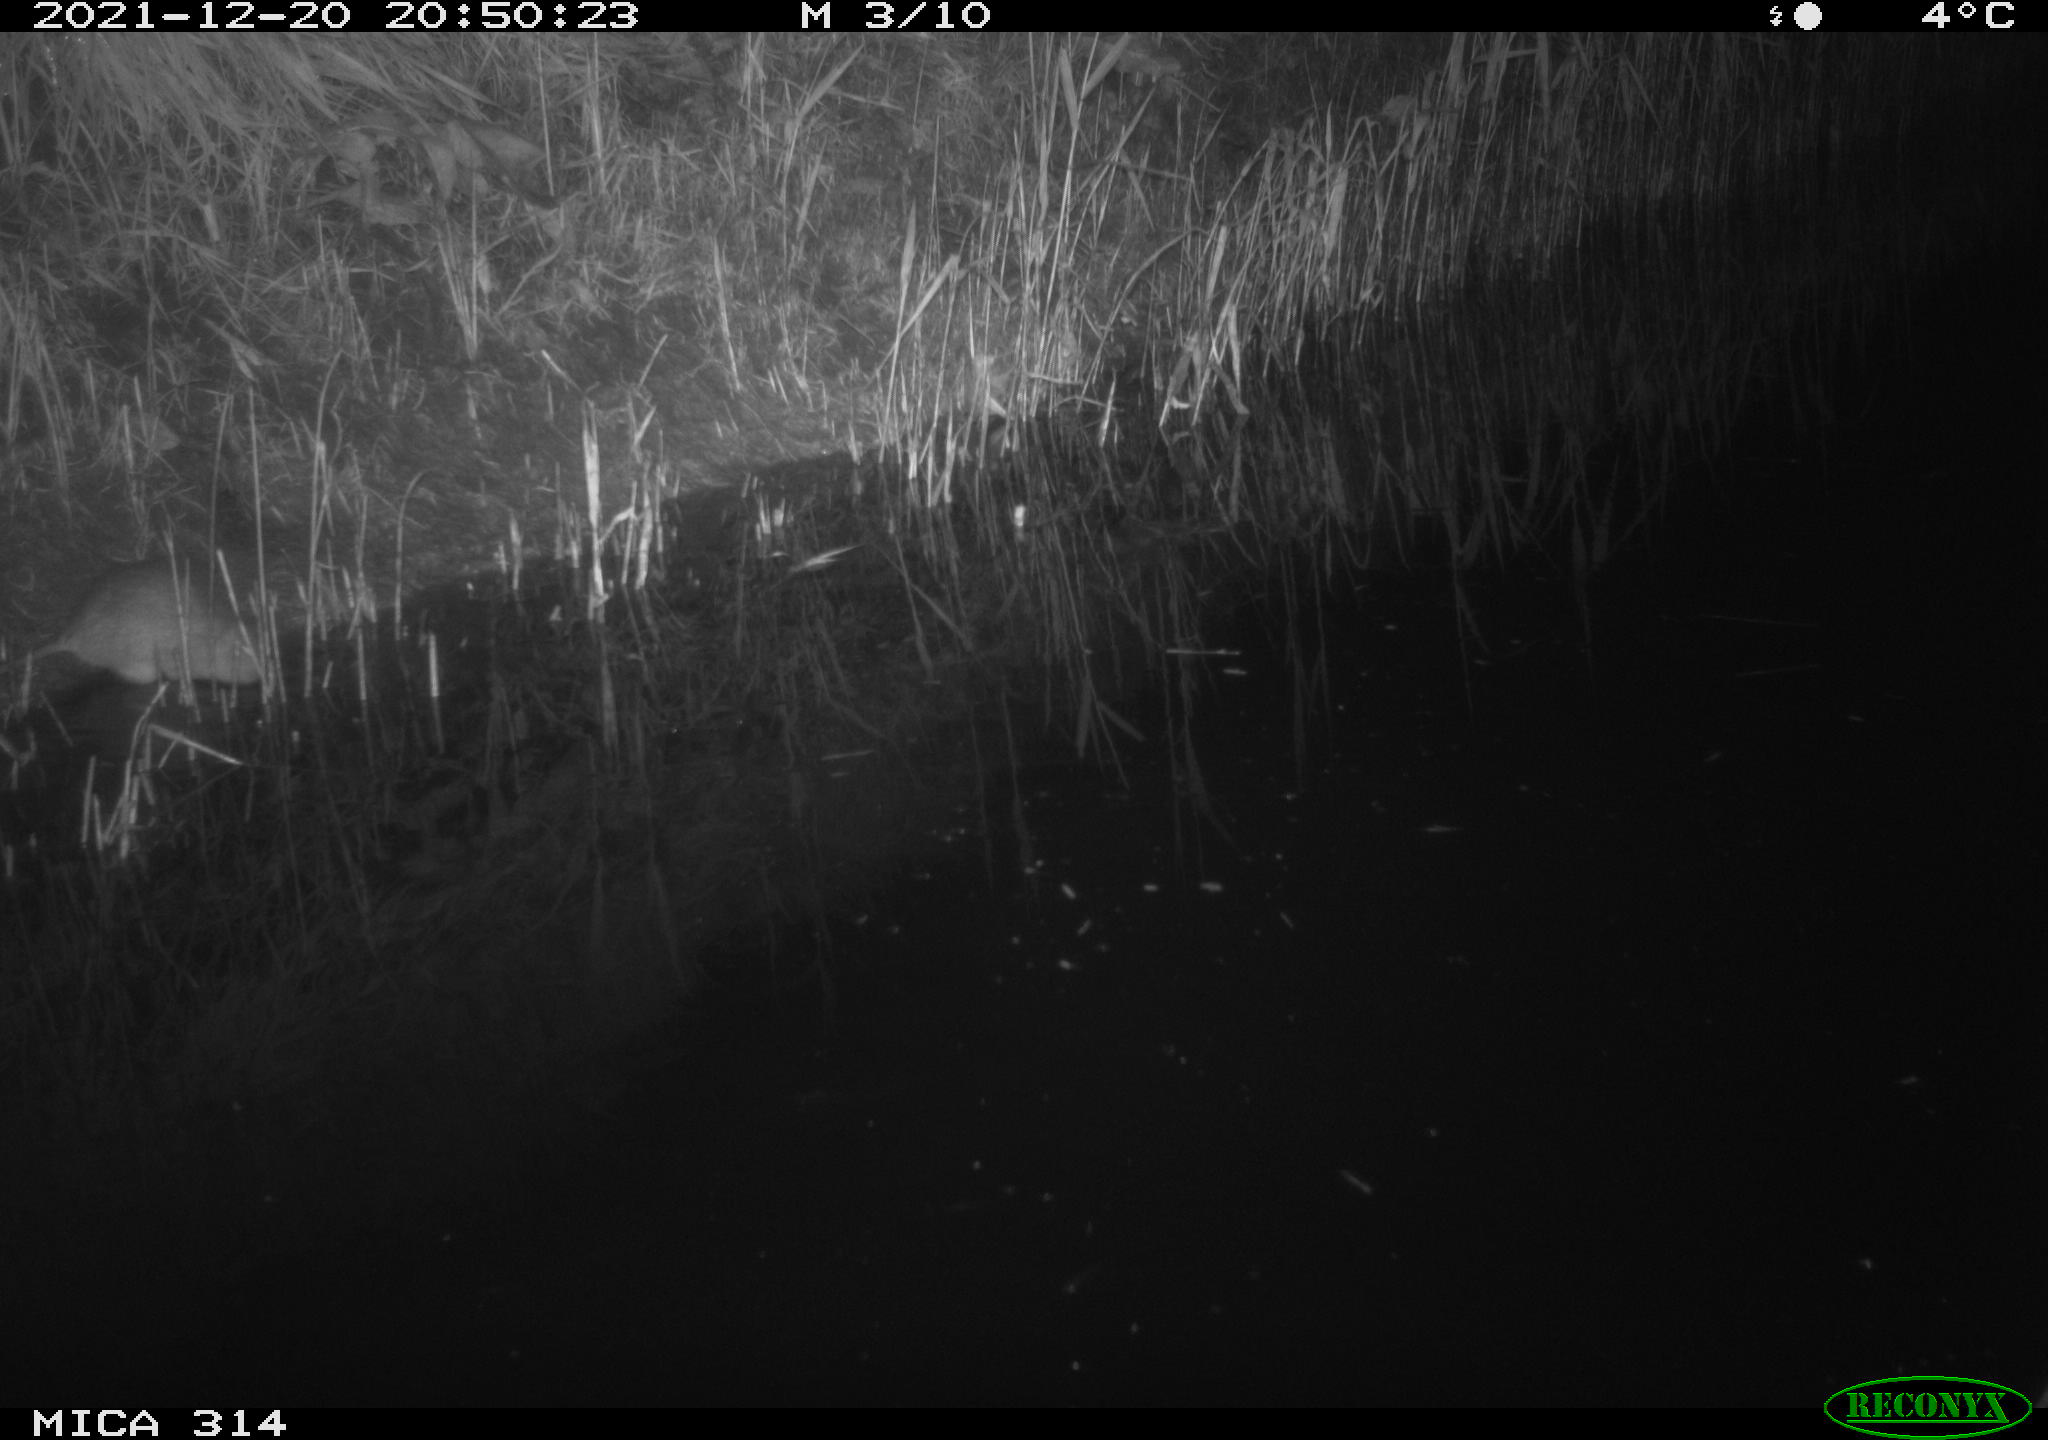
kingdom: Animalia
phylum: Chordata
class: Mammalia
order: Rodentia
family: Muridae
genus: Rattus
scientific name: Rattus norvegicus
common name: Brown rat
